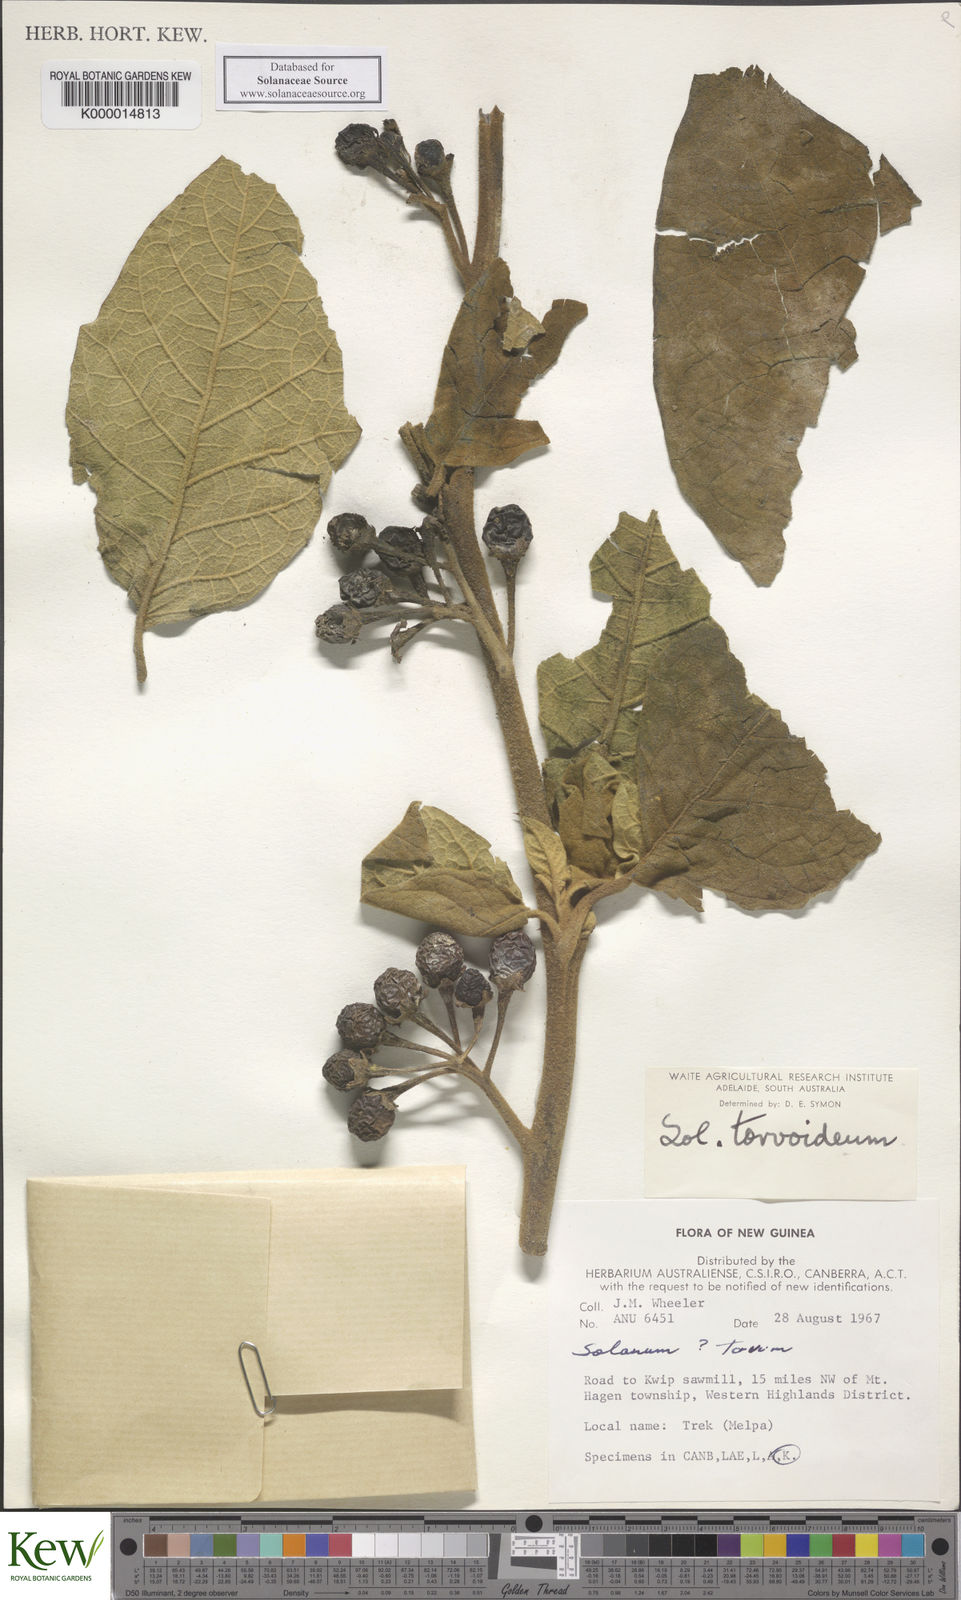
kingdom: Plantae
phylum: Tracheophyta
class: Magnoliopsida
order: Solanales
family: Solanaceae
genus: Solanum
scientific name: Solanum torvoideum
